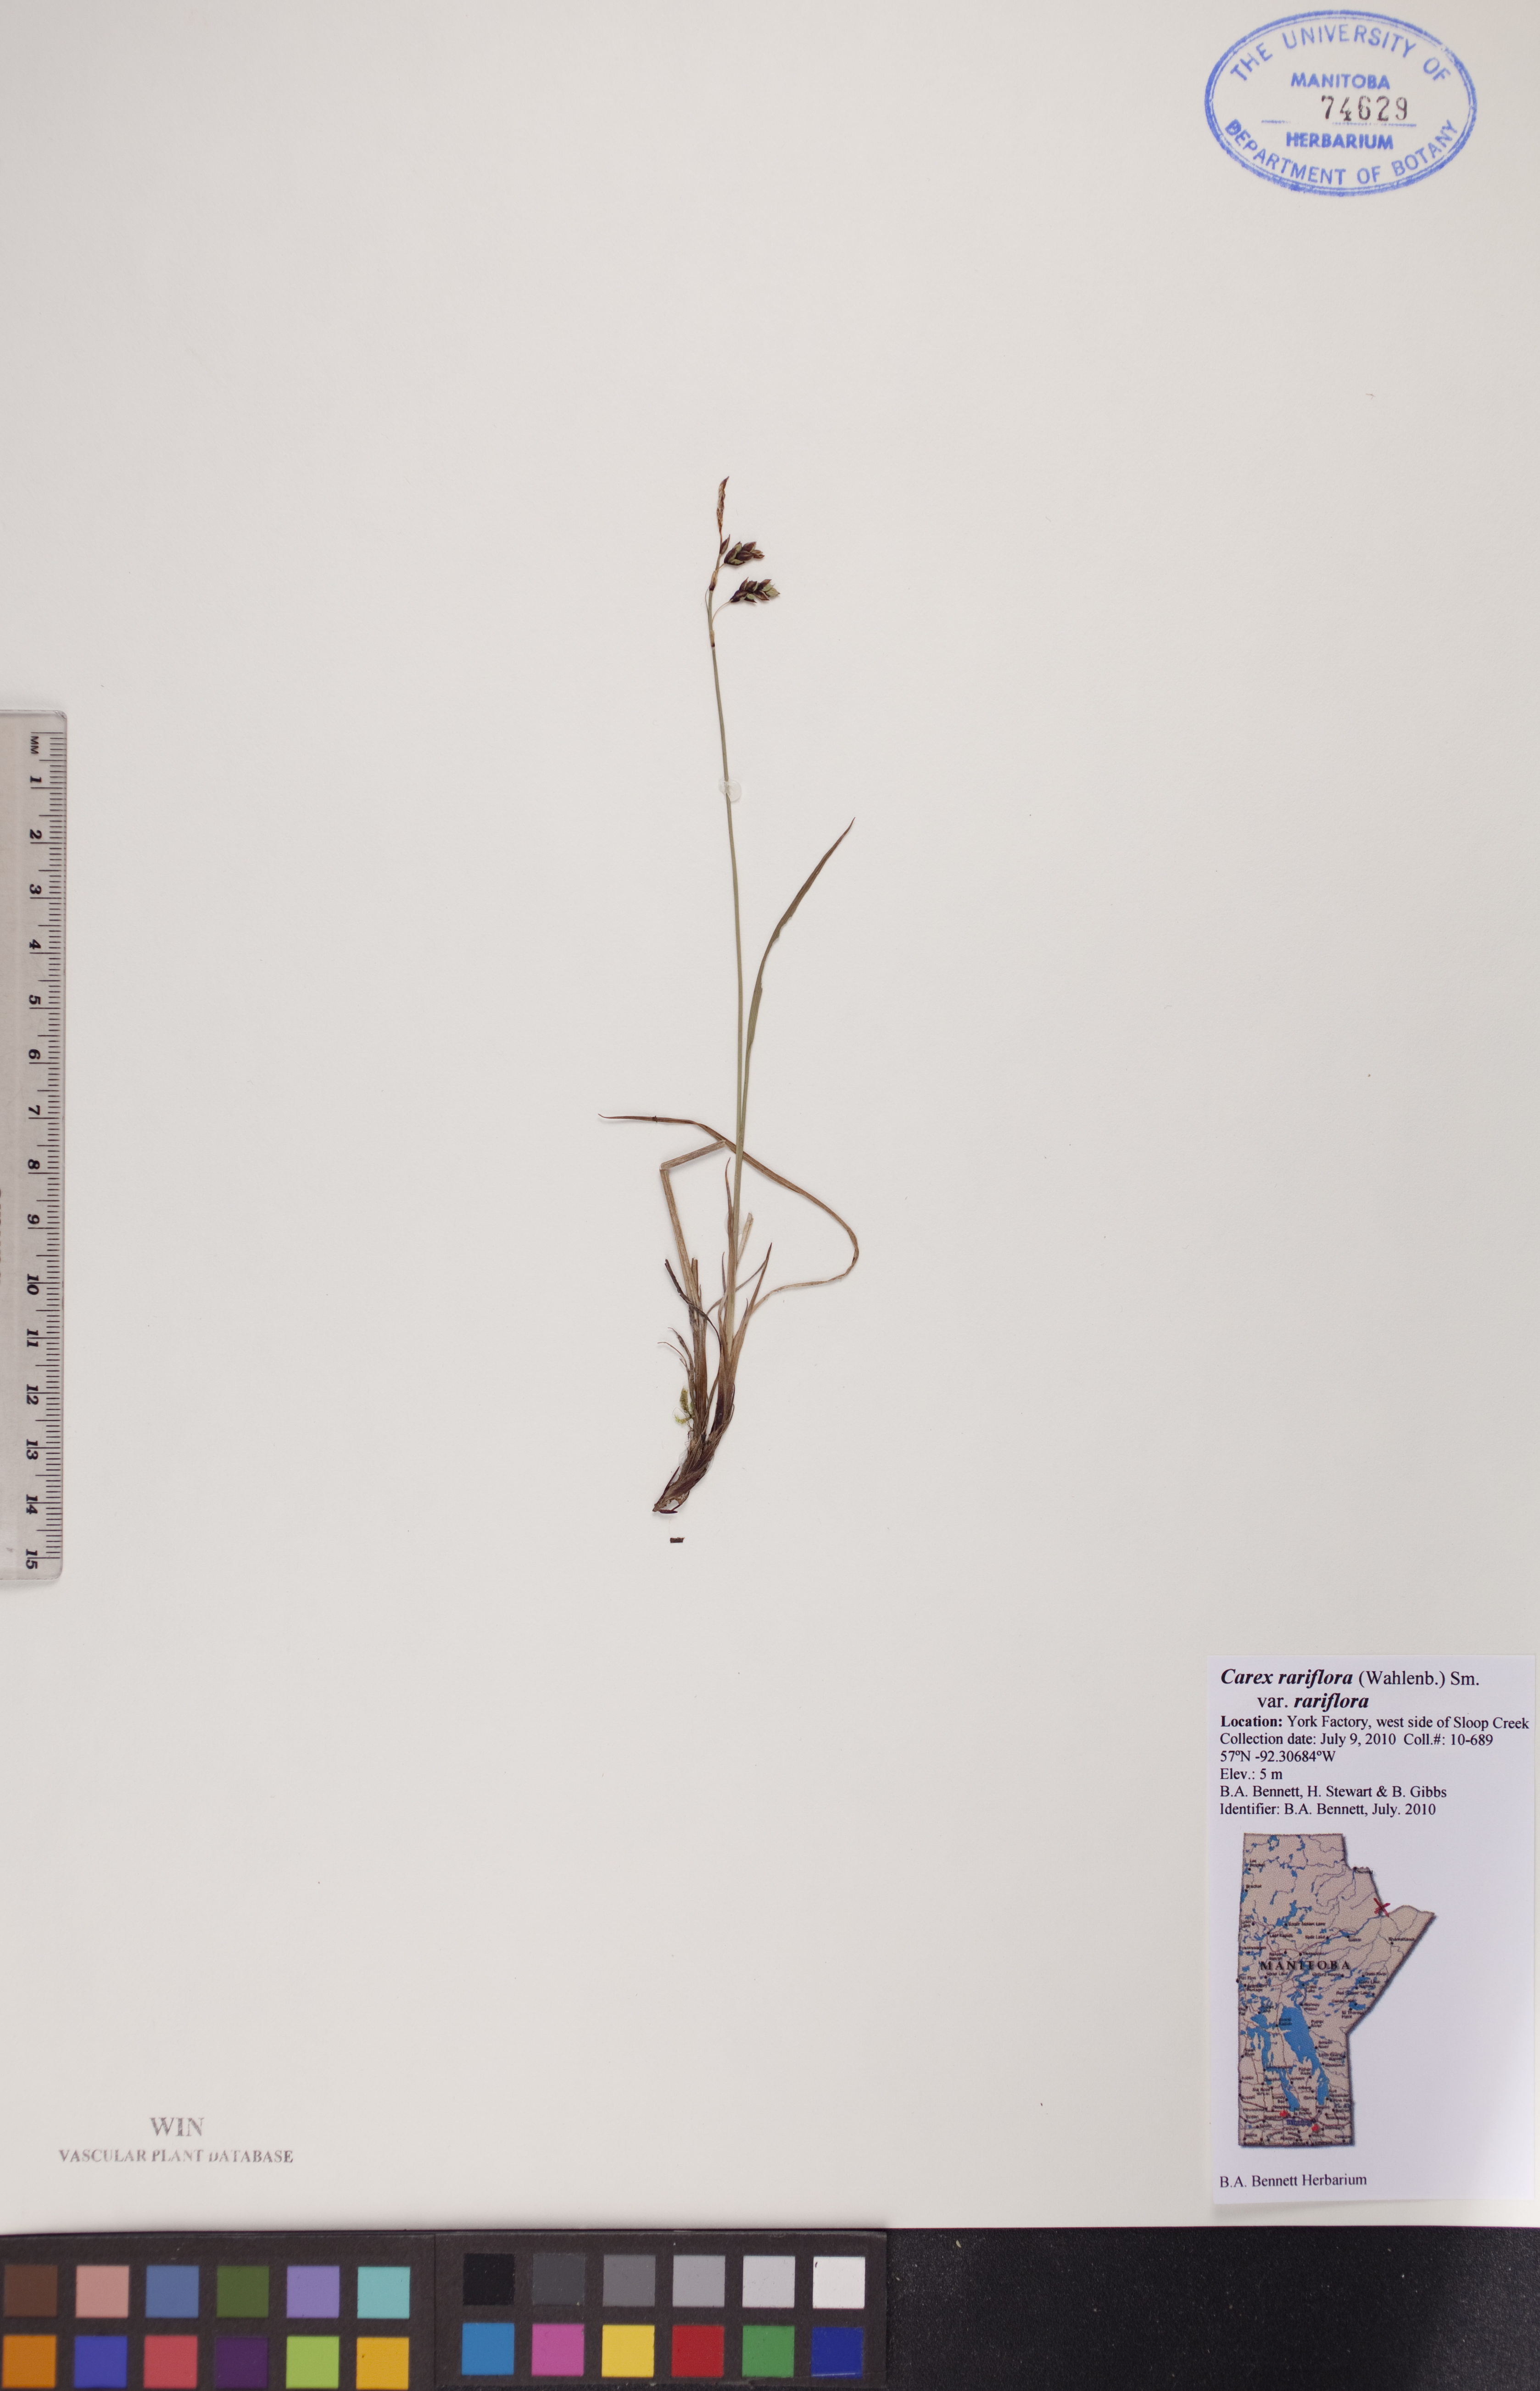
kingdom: Plantae
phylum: Tracheophyta
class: Liliopsida
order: Poales
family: Cyperaceae
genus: Carex
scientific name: Carex rariflora
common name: Loose-flowered alpine sedge
